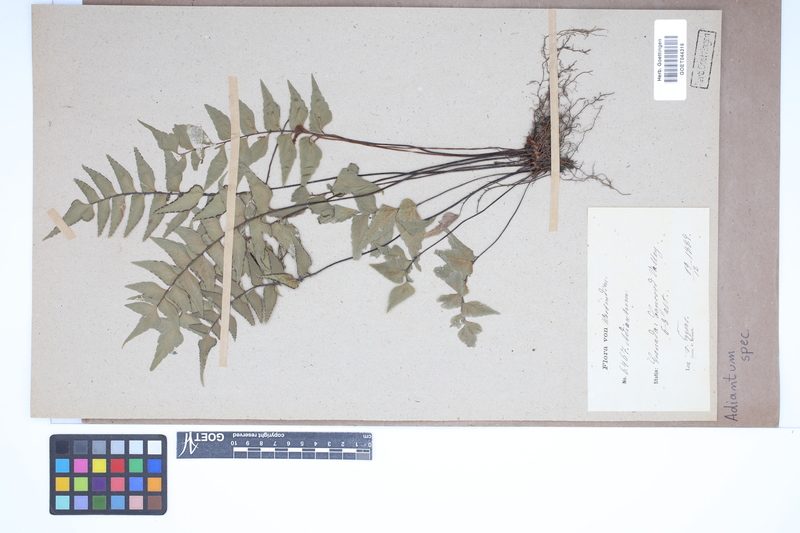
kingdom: Plantae
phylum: Tracheophyta
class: Polypodiopsida
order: Polypodiales
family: Pteridaceae
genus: Adiantum
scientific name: Adiantum
